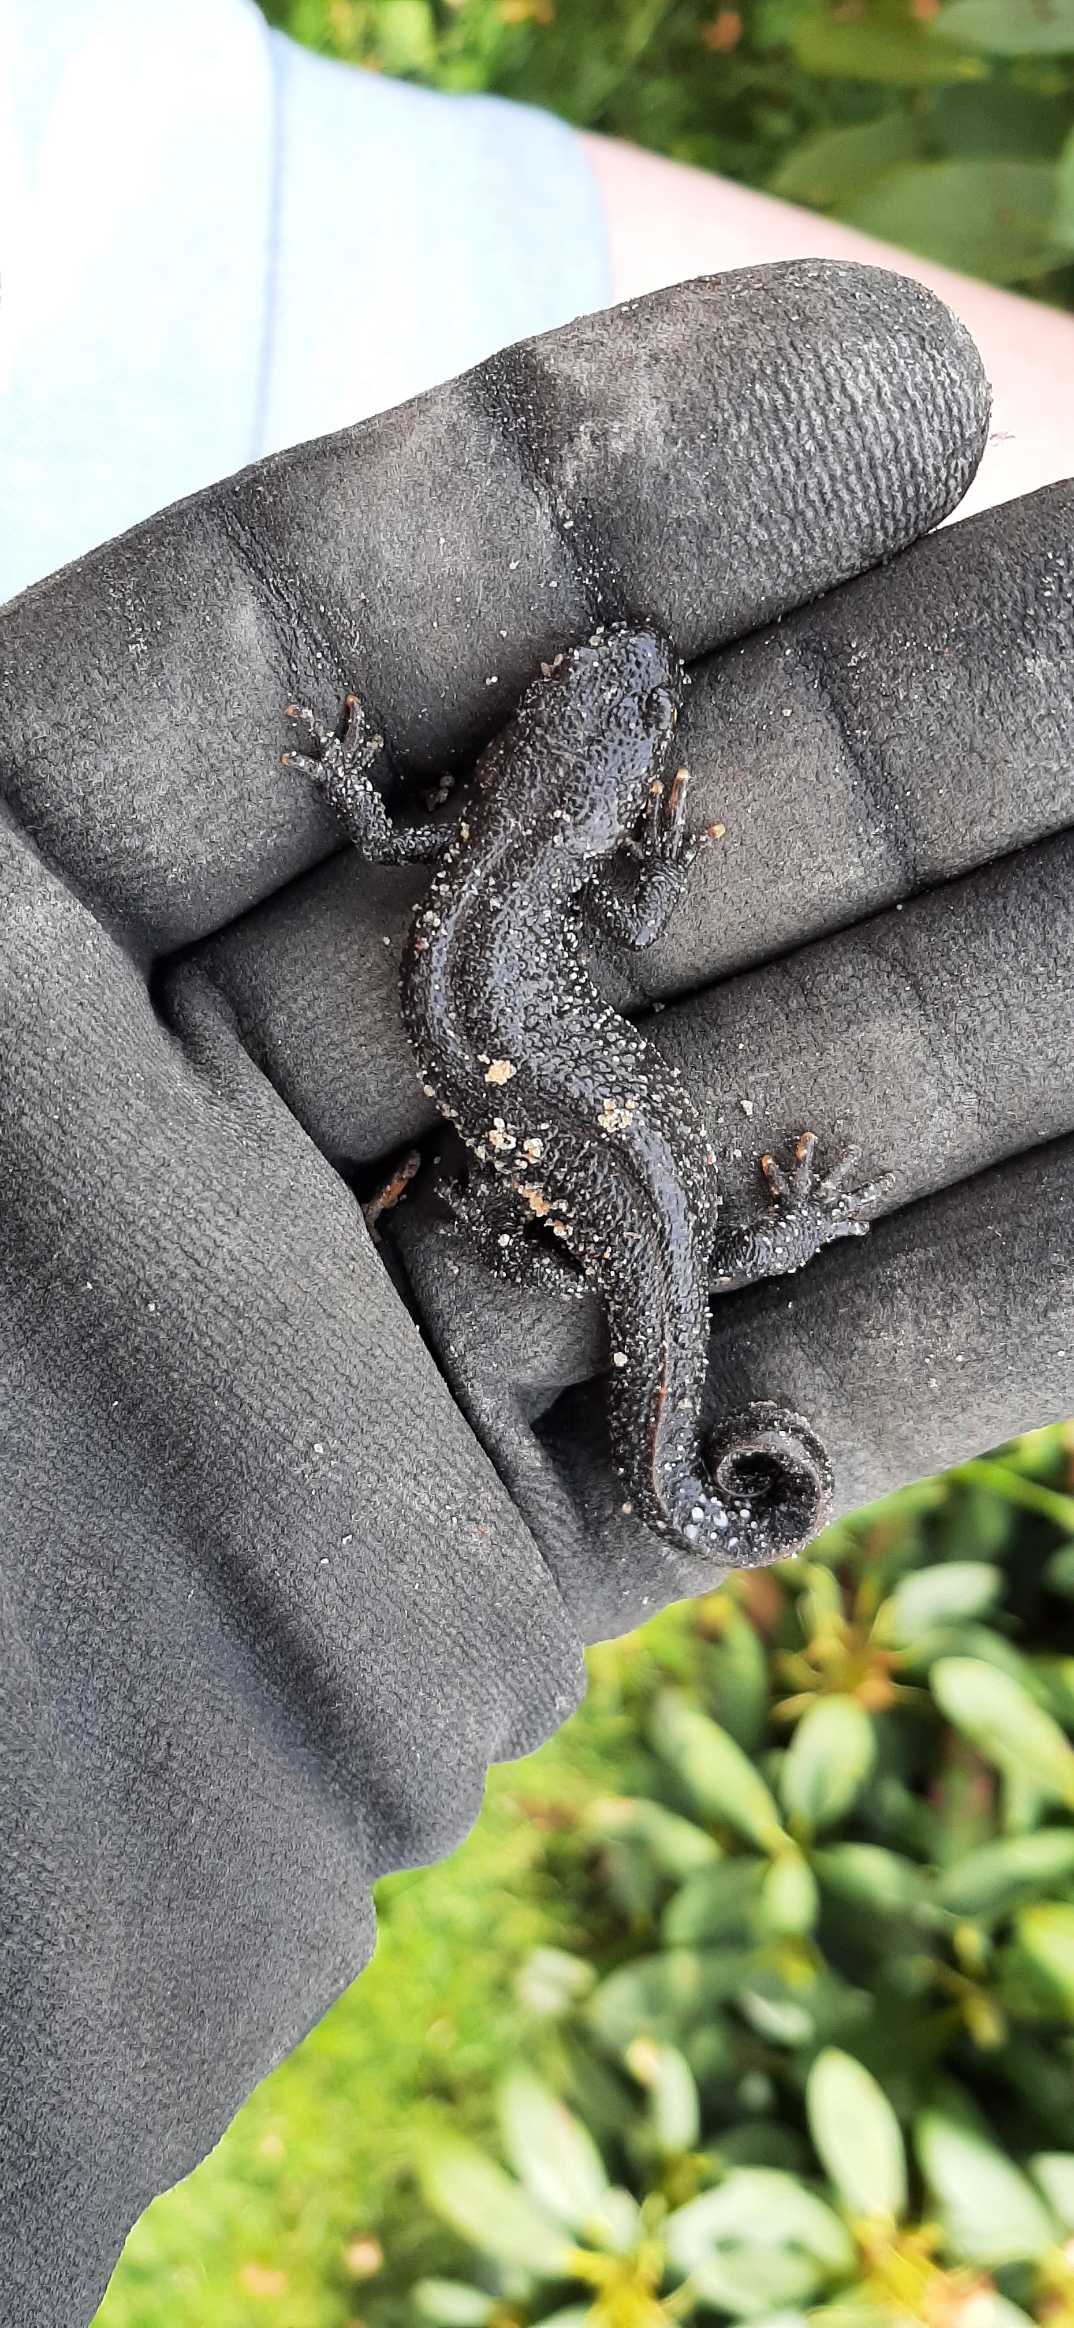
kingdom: Animalia
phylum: Chordata
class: Amphibia
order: Caudata
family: Salamandridae
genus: Triturus
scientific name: Triturus cristatus
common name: Stor vandsalamander
